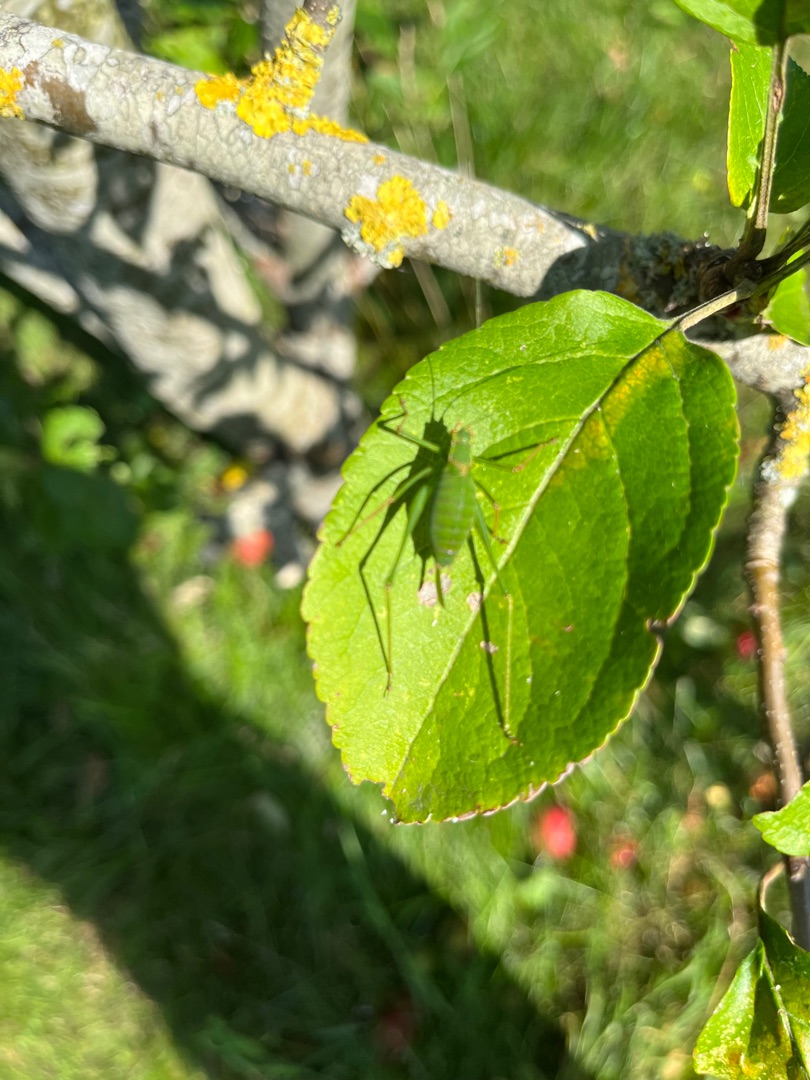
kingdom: Animalia
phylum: Arthropoda
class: Insecta
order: Orthoptera
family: Tettigoniidae
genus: Leptophyes
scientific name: Leptophyes punctatissima
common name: Krumknivgræshoppe
